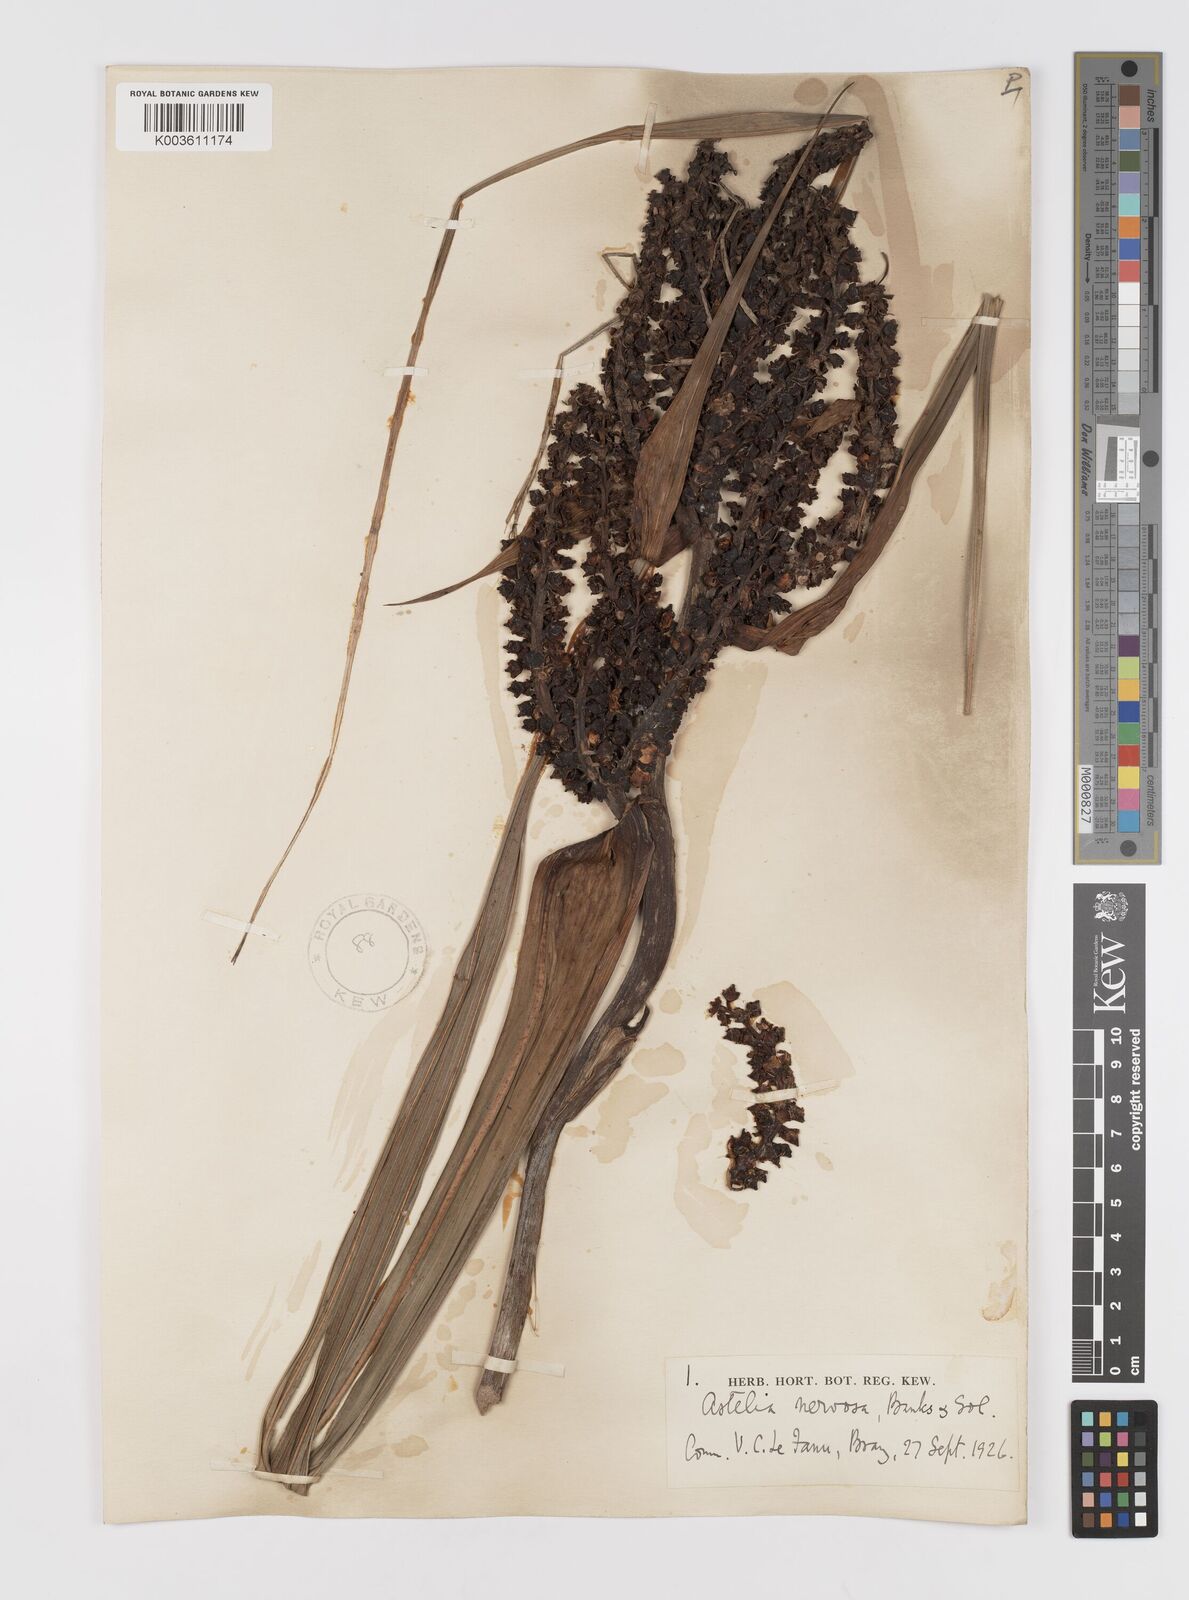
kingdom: Plantae
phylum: Tracheophyta
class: Liliopsida
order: Asparagales
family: Asteliaceae
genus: Astelia
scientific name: Astelia nervosa
